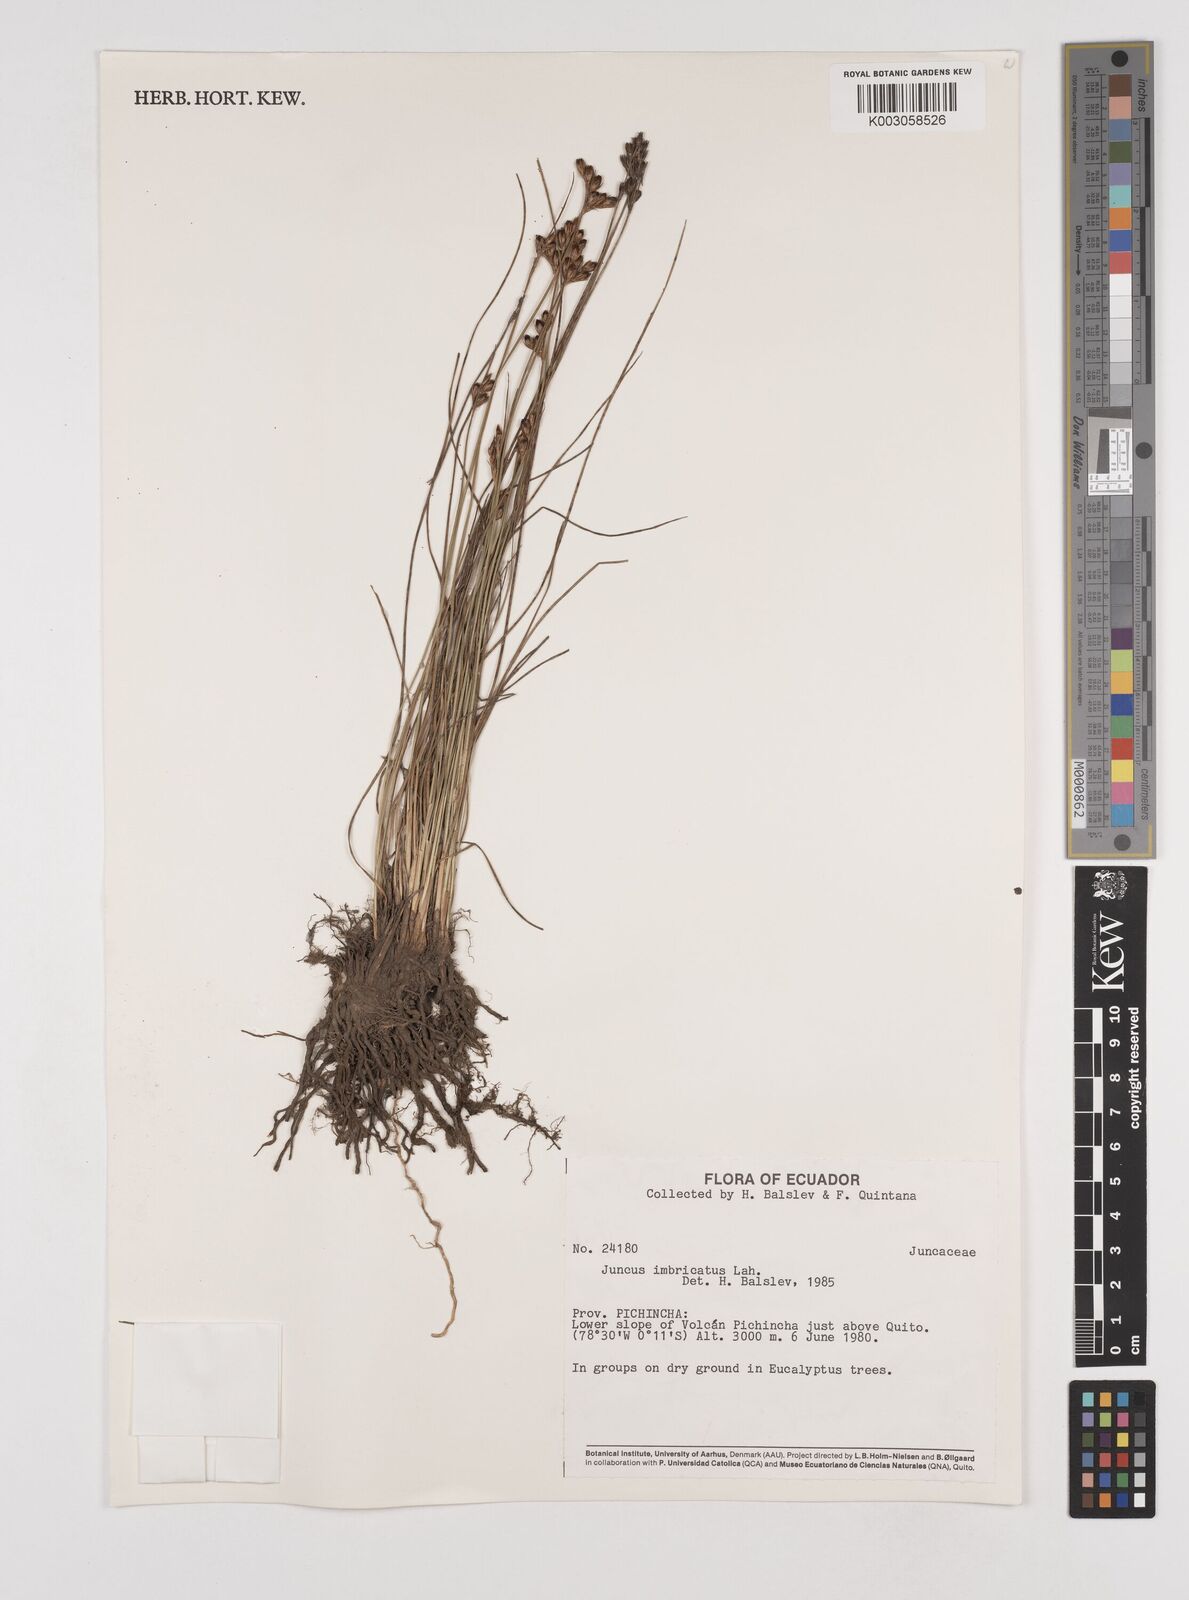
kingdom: Plantae
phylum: Tracheophyta
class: Liliopsida
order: Poales
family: Juncaceae
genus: Juncus
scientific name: Juncus imbricatus
